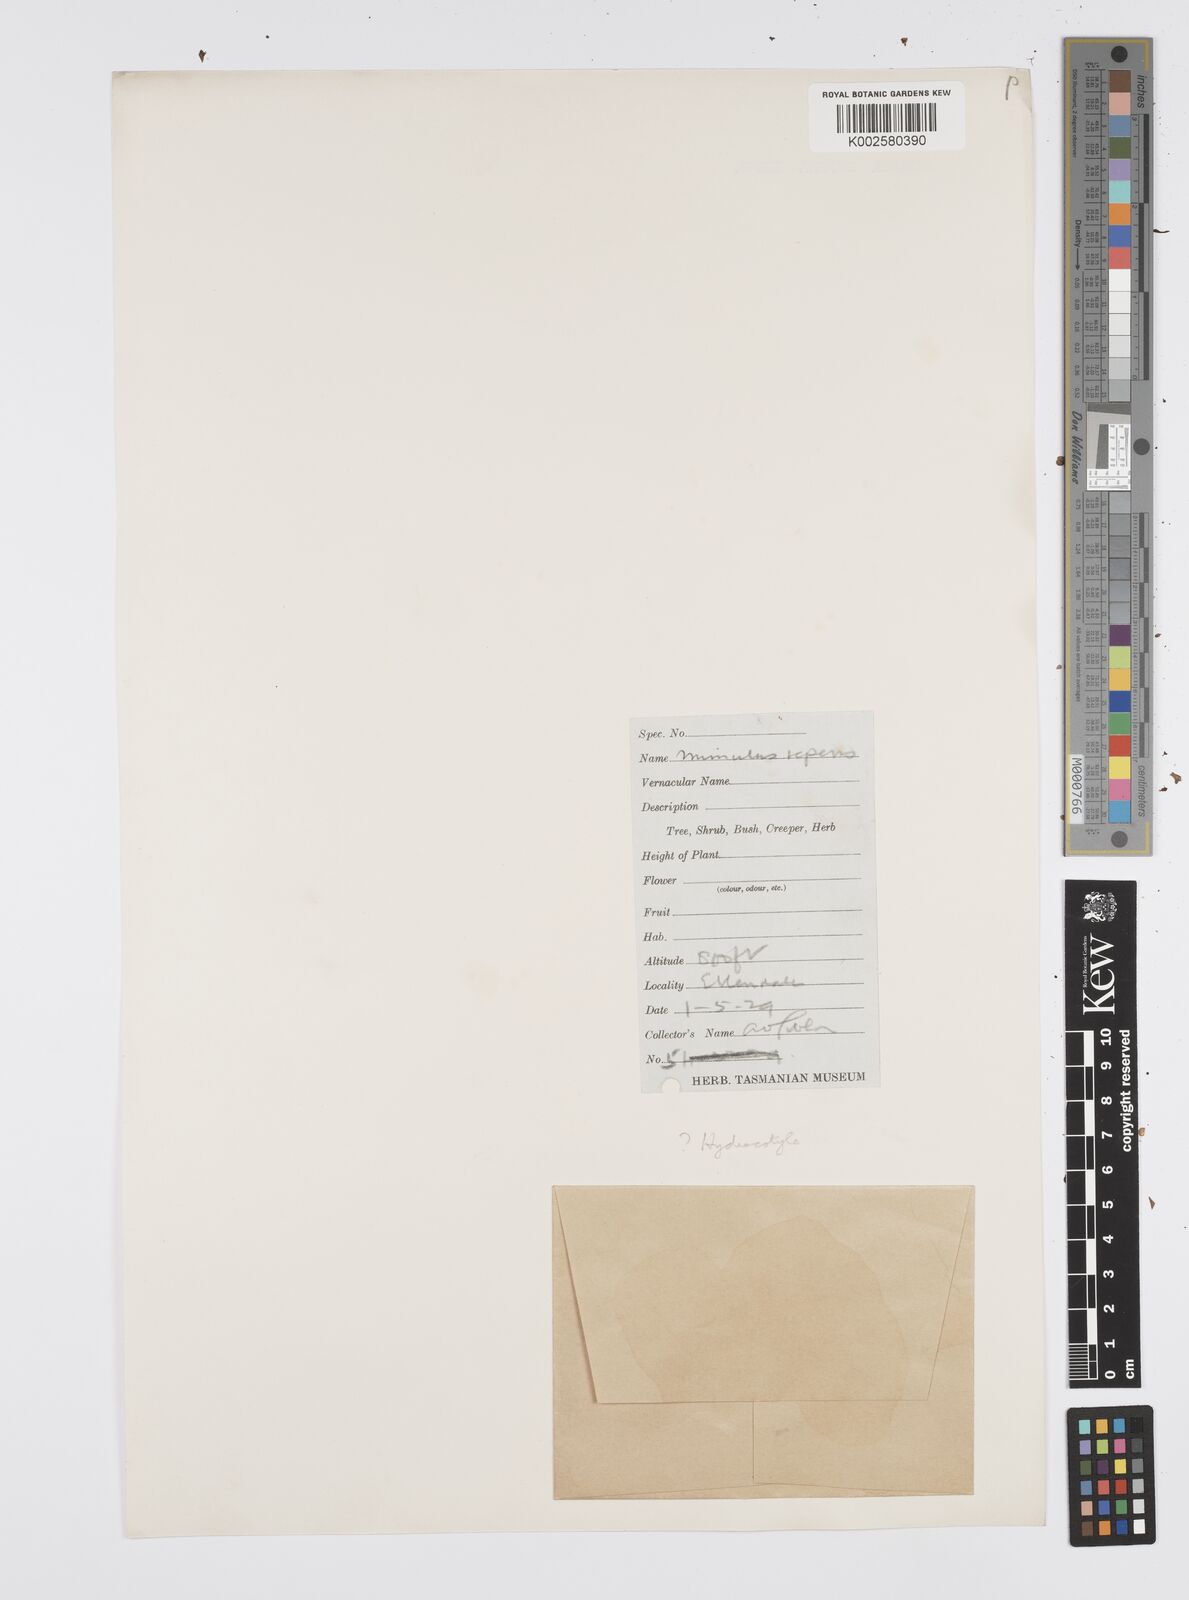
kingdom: Plantae
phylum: Tracheophyta
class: Magnoliopsida
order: Apiales
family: Apiaceae
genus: Centella
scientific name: Centella cordifolia
